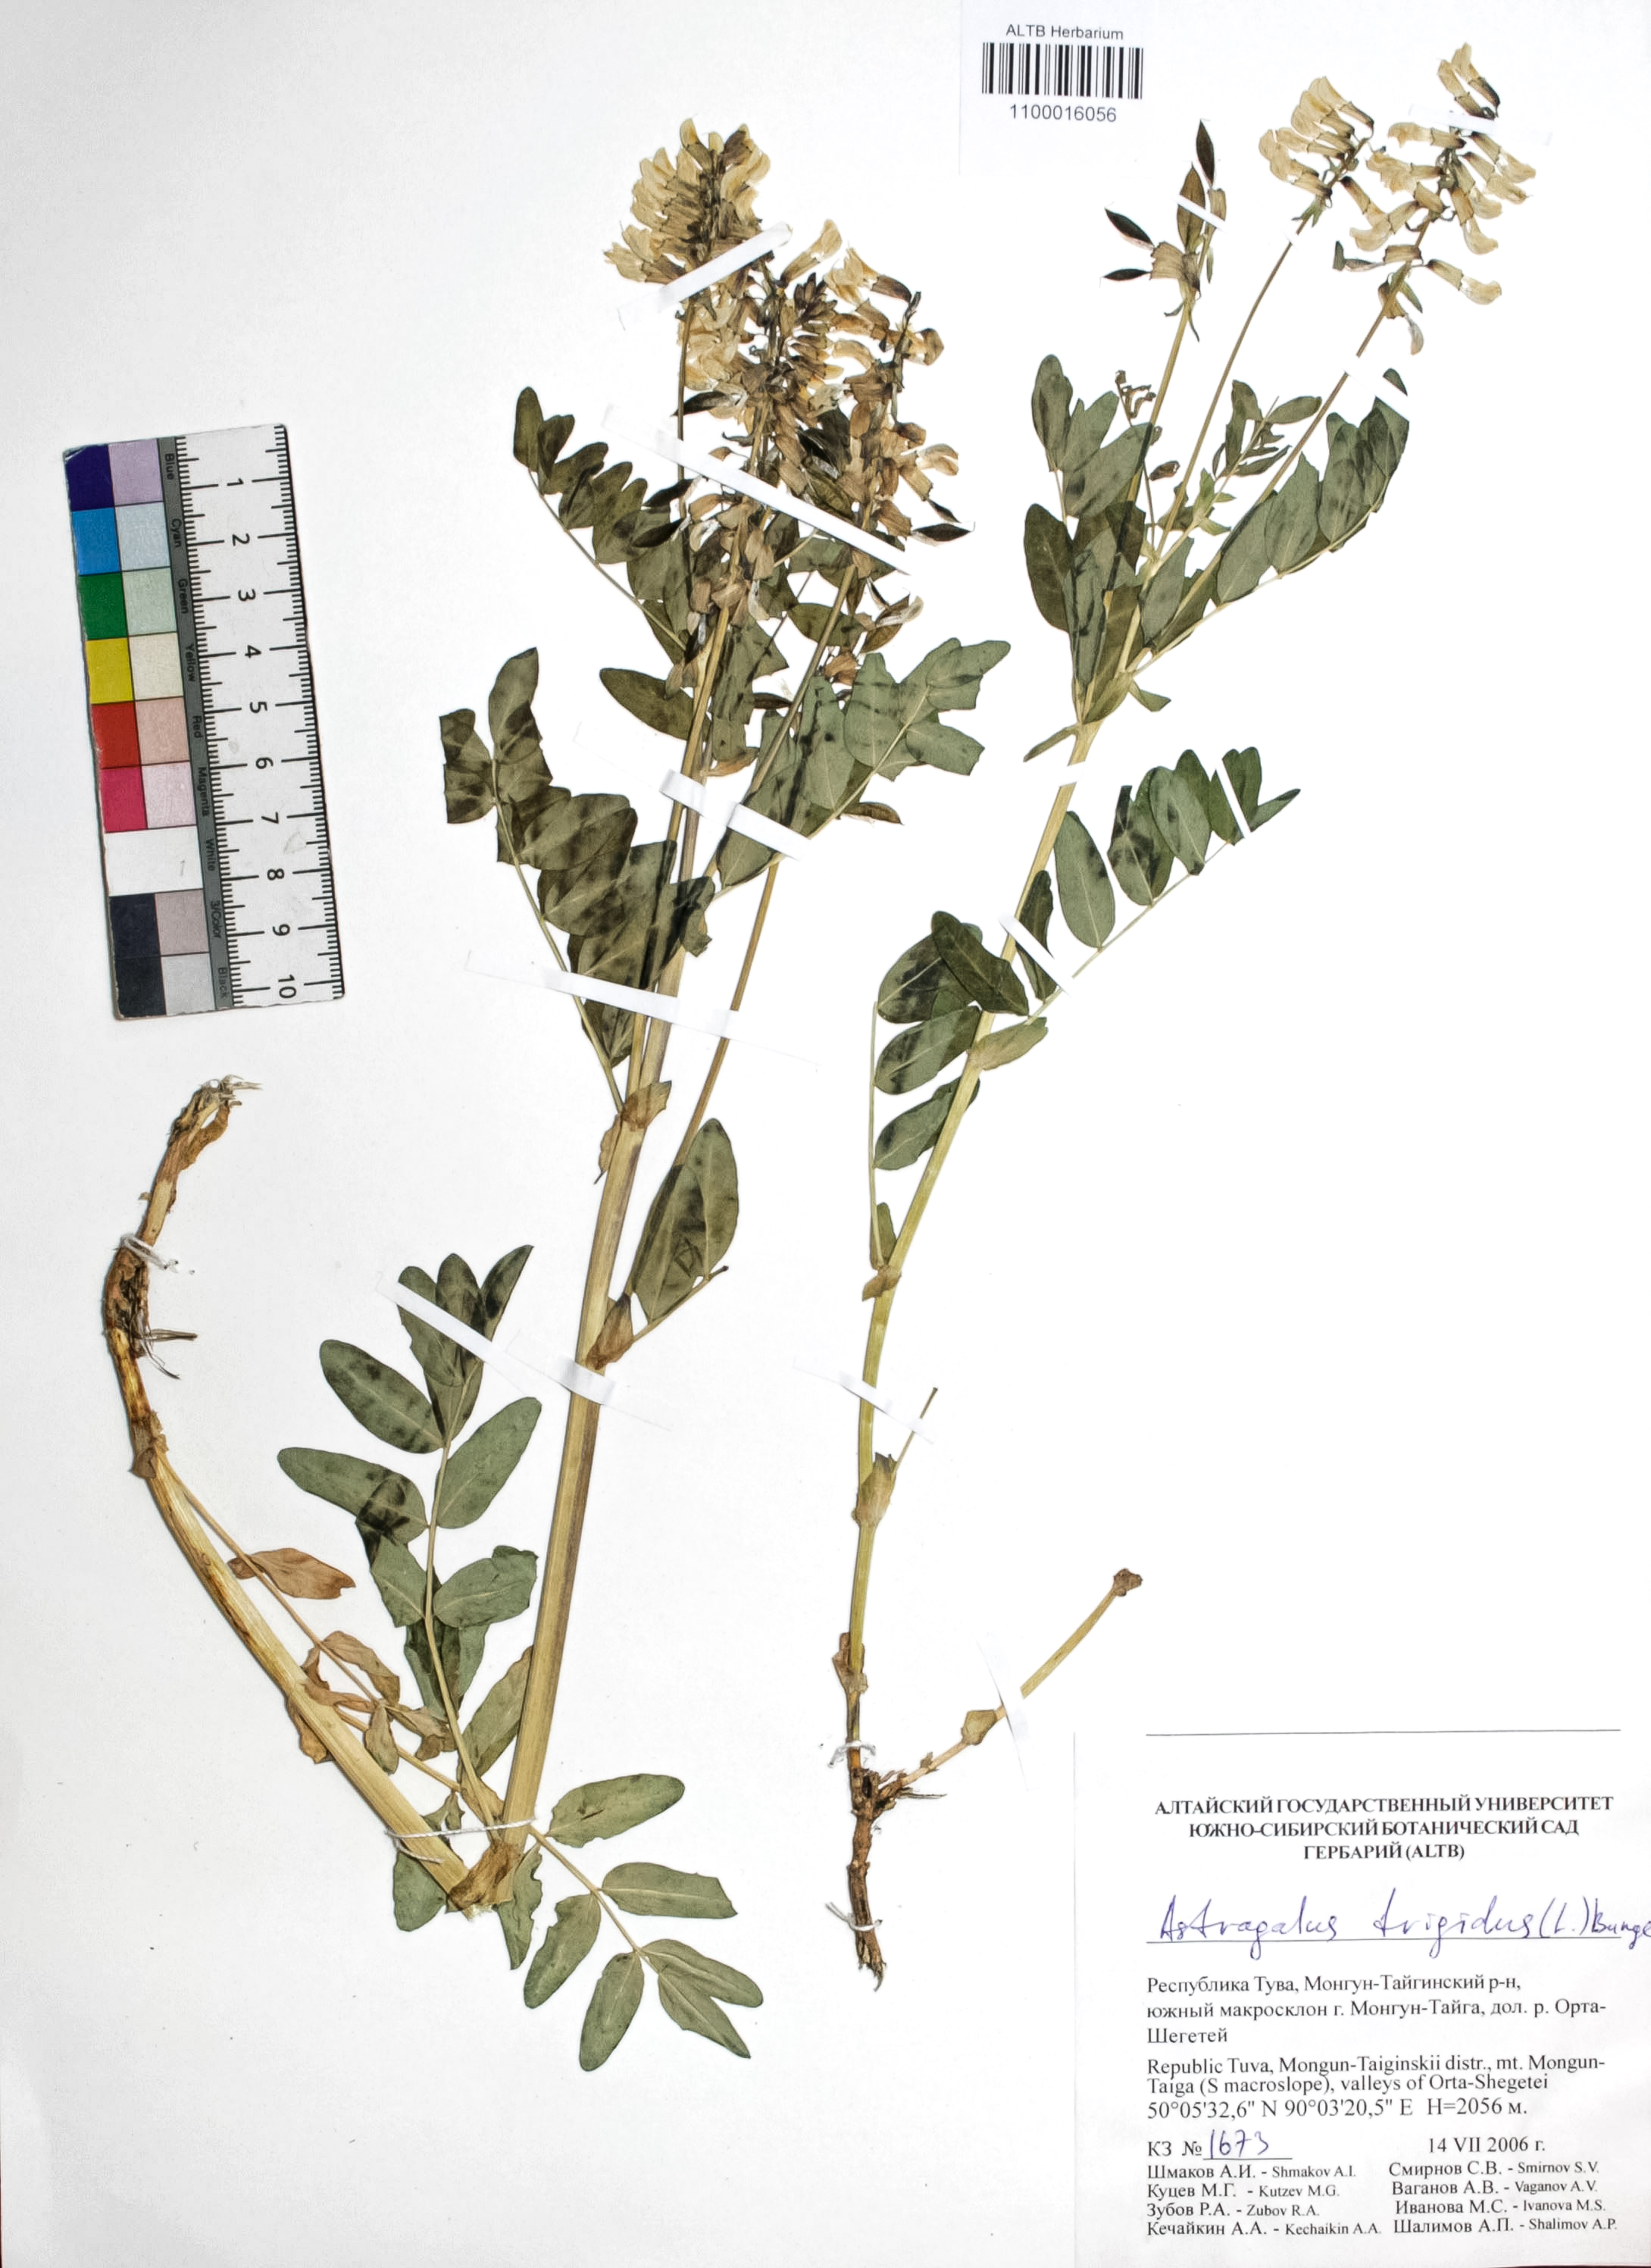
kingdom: Plantae
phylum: Tracheophyta
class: Magnoliopsida
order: Fabales
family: Fabaceae
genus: Astragalus
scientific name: Astragalus frigidus
